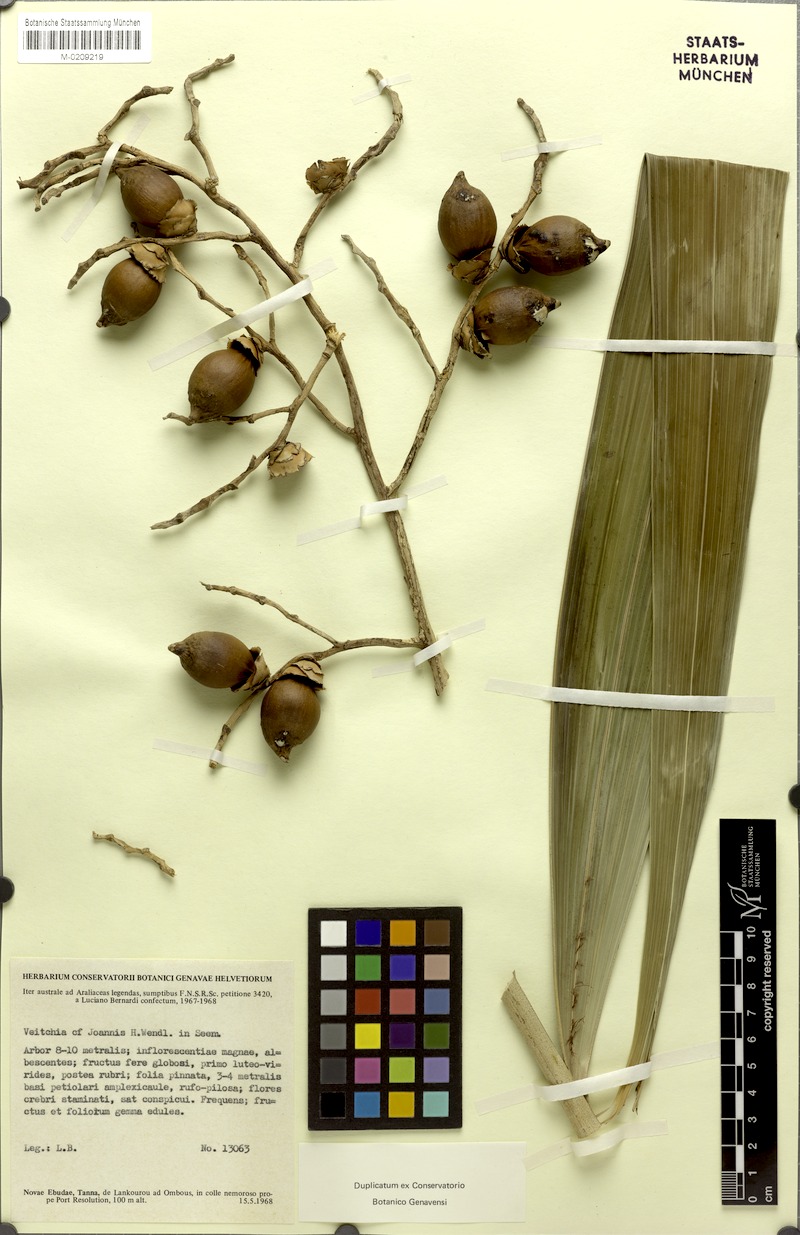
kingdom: Plantae
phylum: Tracheophyta
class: Liliopsida
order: Arecales
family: Arecaceae
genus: Veitchia
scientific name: Veitchia joannis
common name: Joannis palm
